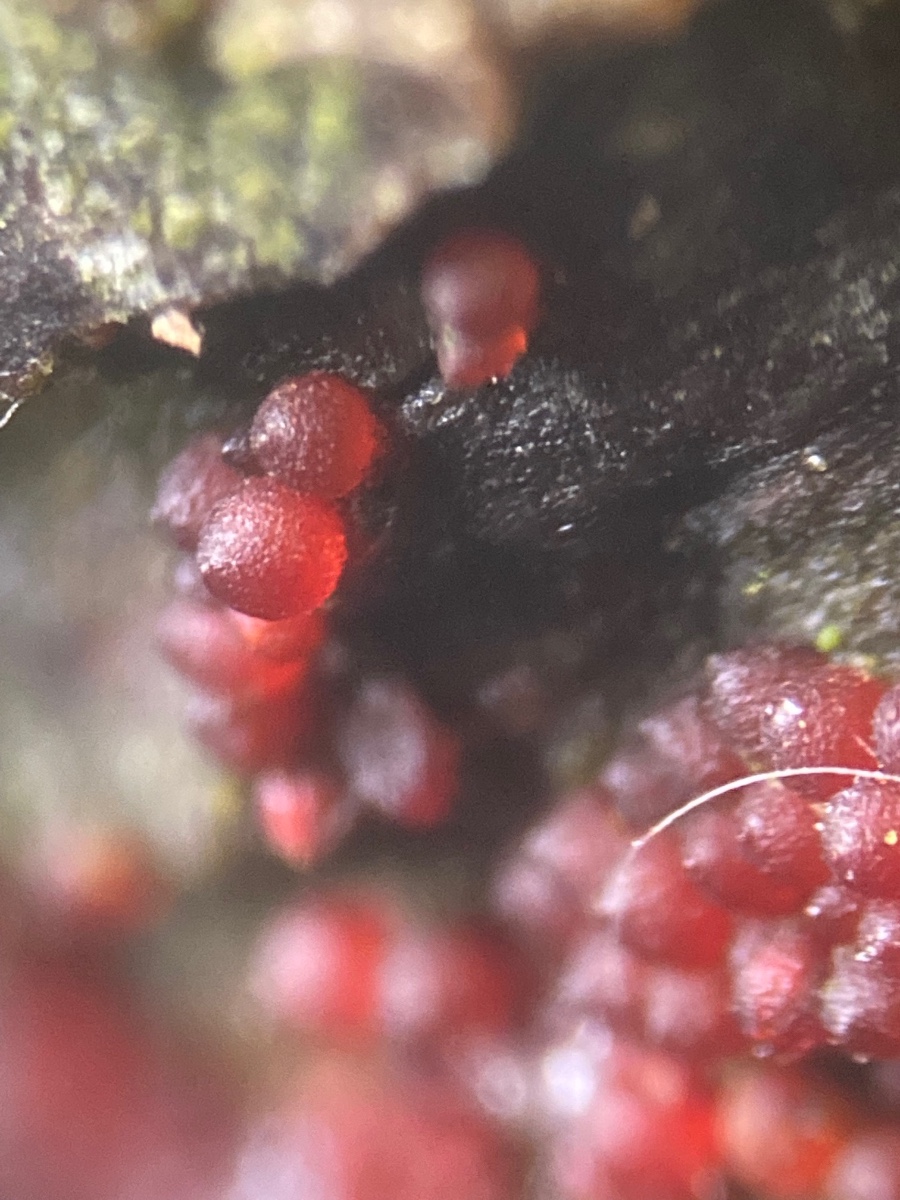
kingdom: Fungi
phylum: Ascomycota
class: Sordariomycetes
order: Hypocreales
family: Nectriaceae
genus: Neonectria
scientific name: Neonectria ditissima
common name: frugttræ-cinnobersvamp
